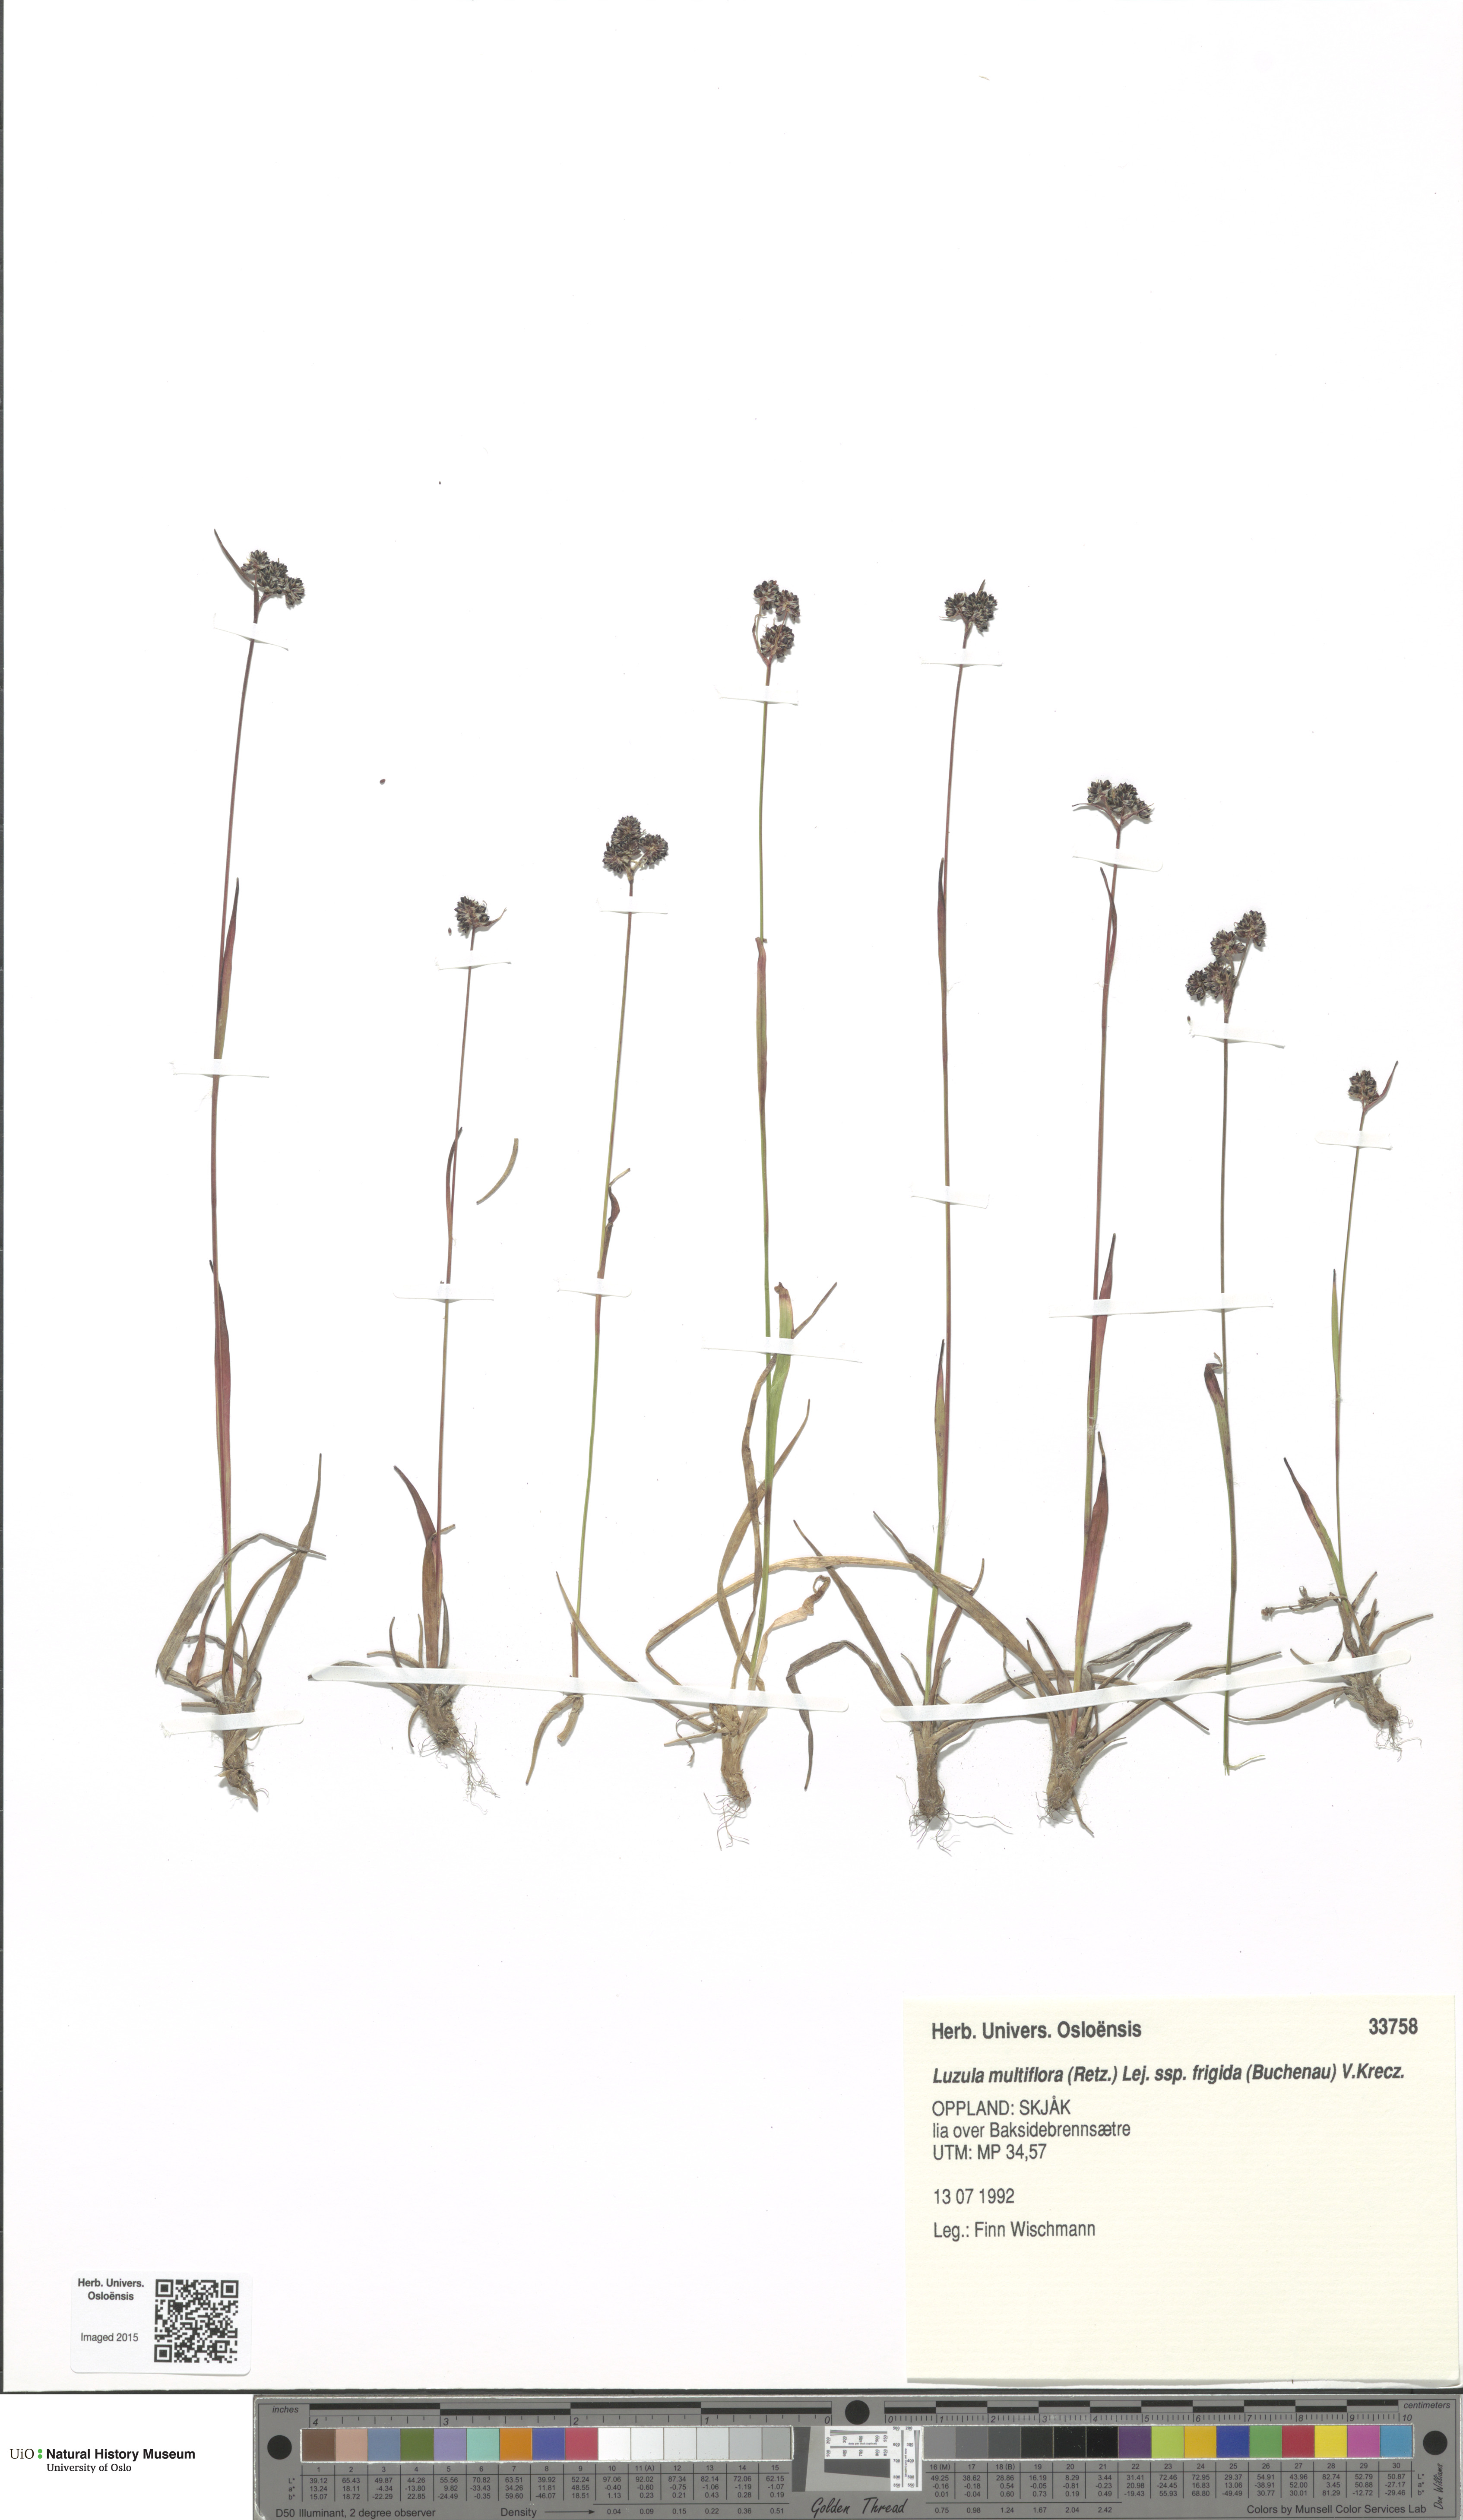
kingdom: Plantae
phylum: Tracheophyta
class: Liliopsida
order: Poales
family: Juncaceae
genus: Luzula
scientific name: Luzula multiflora
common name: Heath wood-rush
